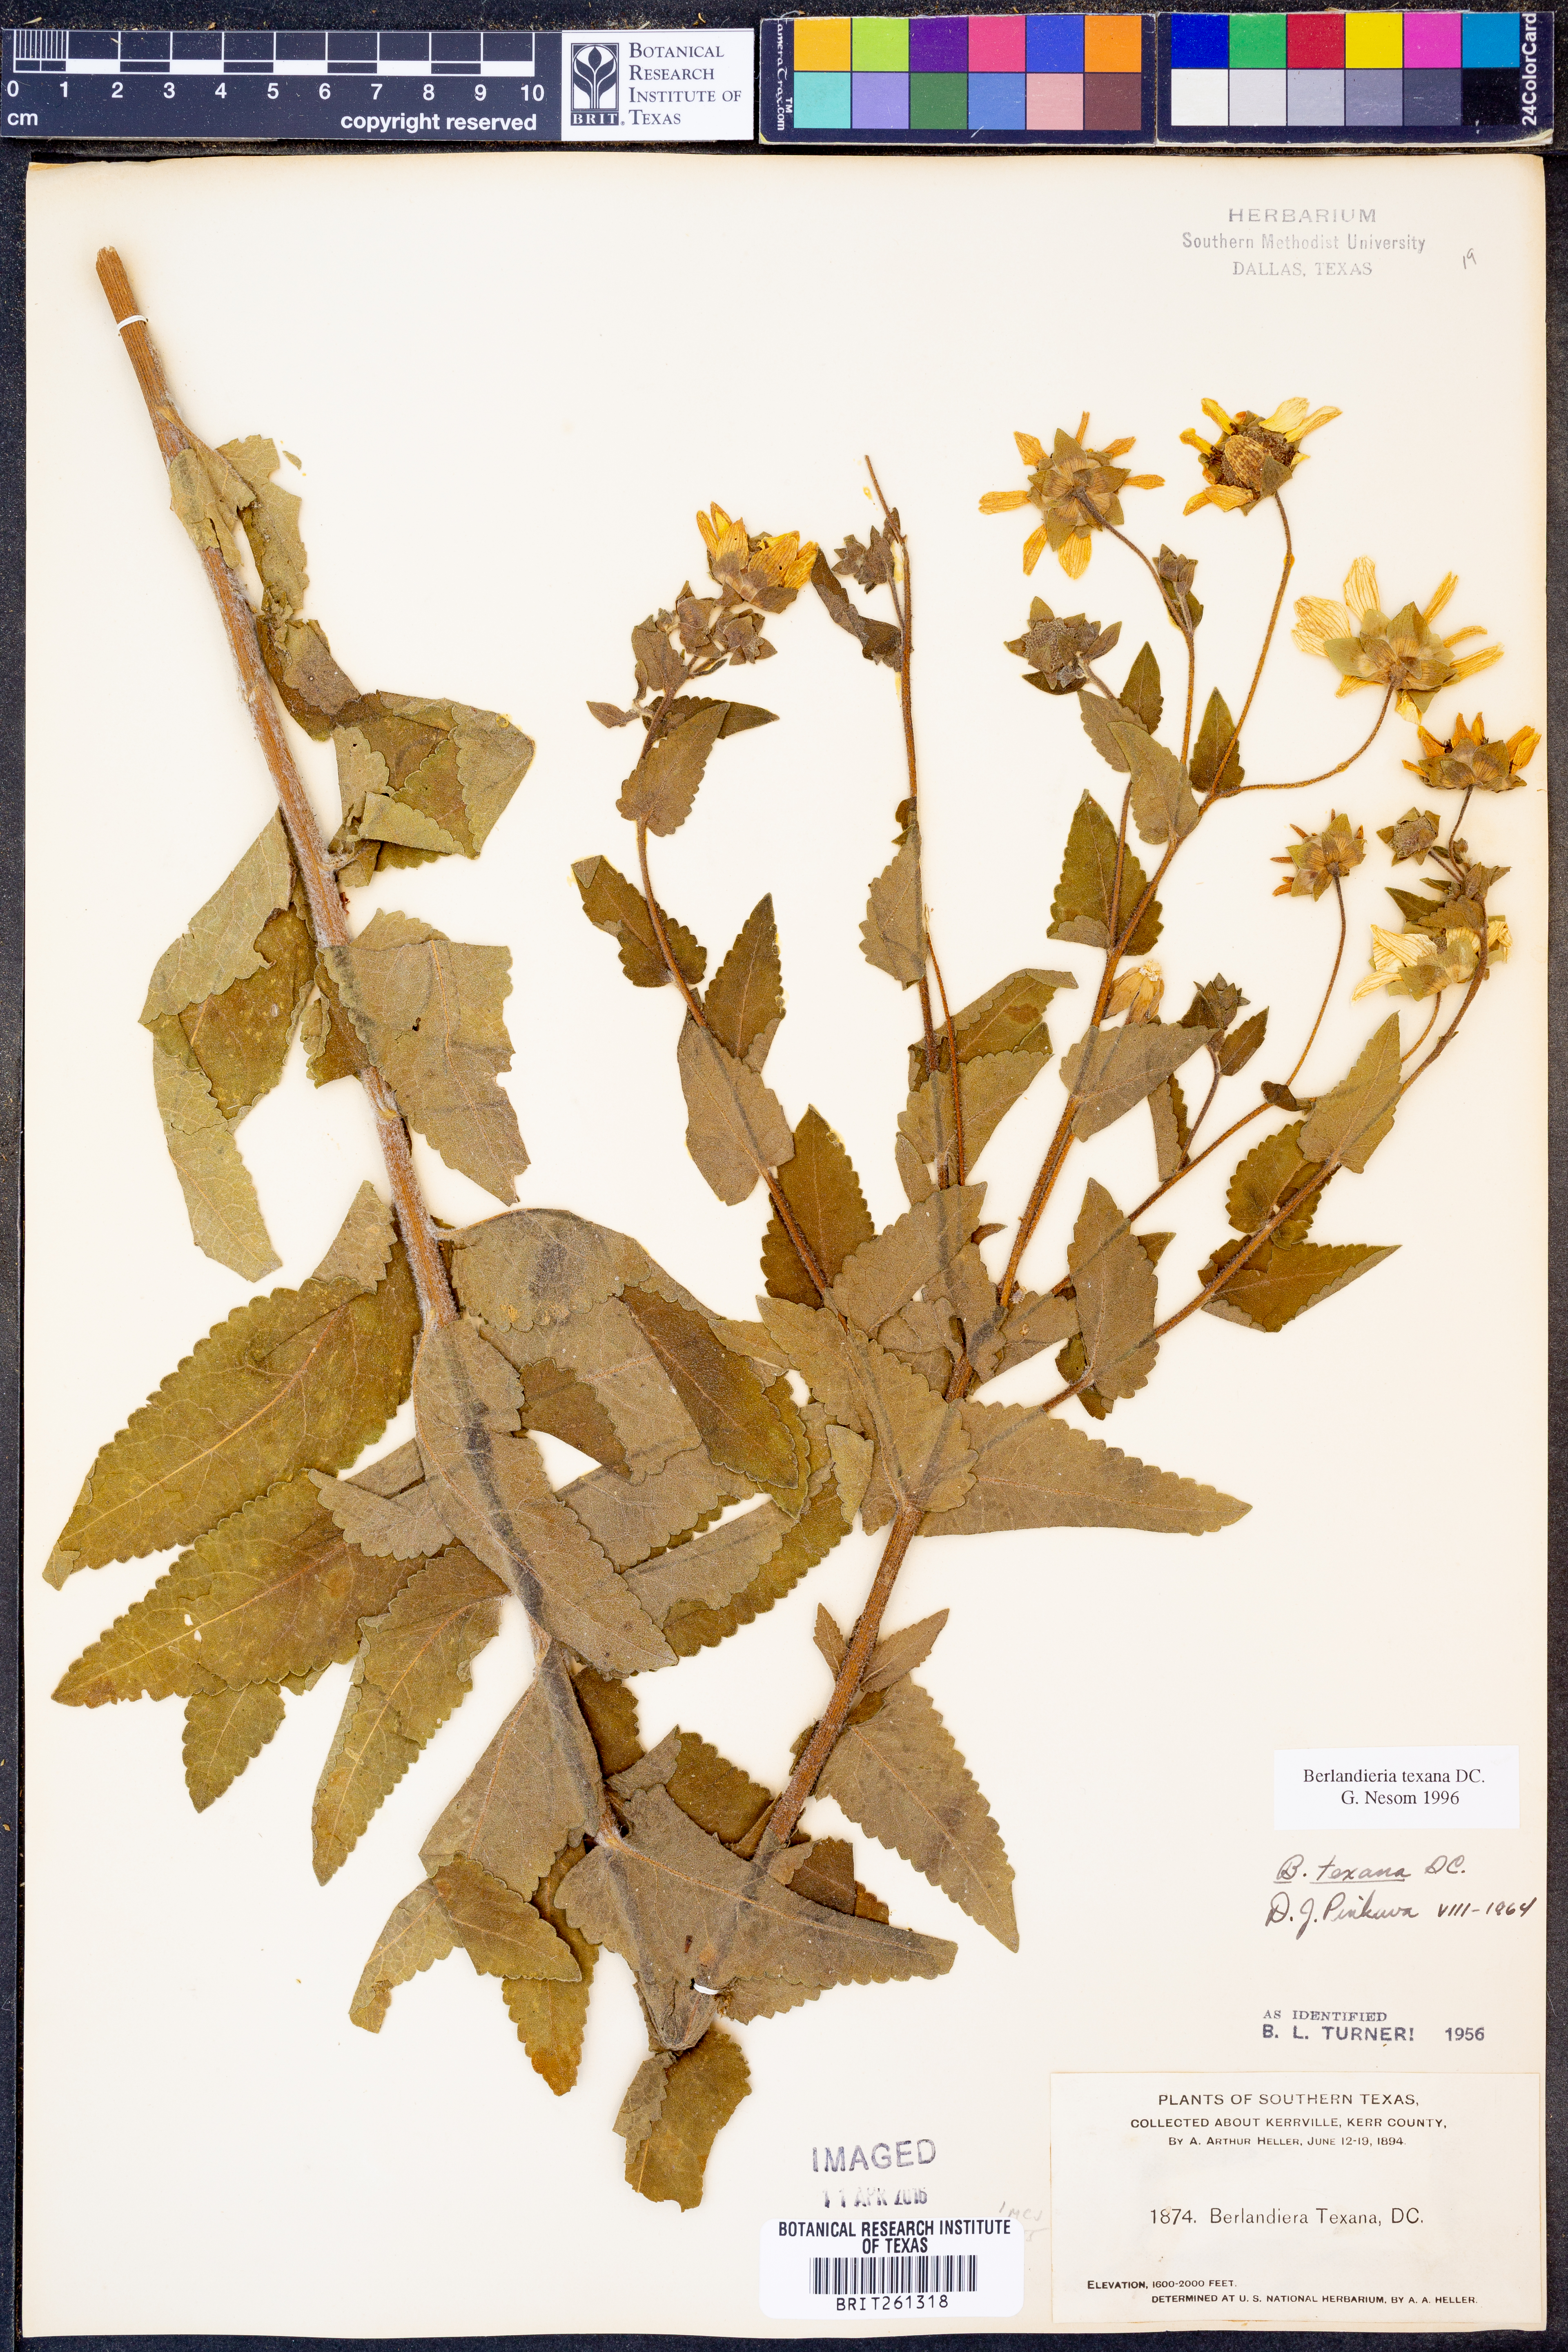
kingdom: Plantae
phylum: Tracheophyta
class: Magnoliopsida
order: Asterales
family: Asteraceae
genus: Berlandiera
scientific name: Berlandiera texana
